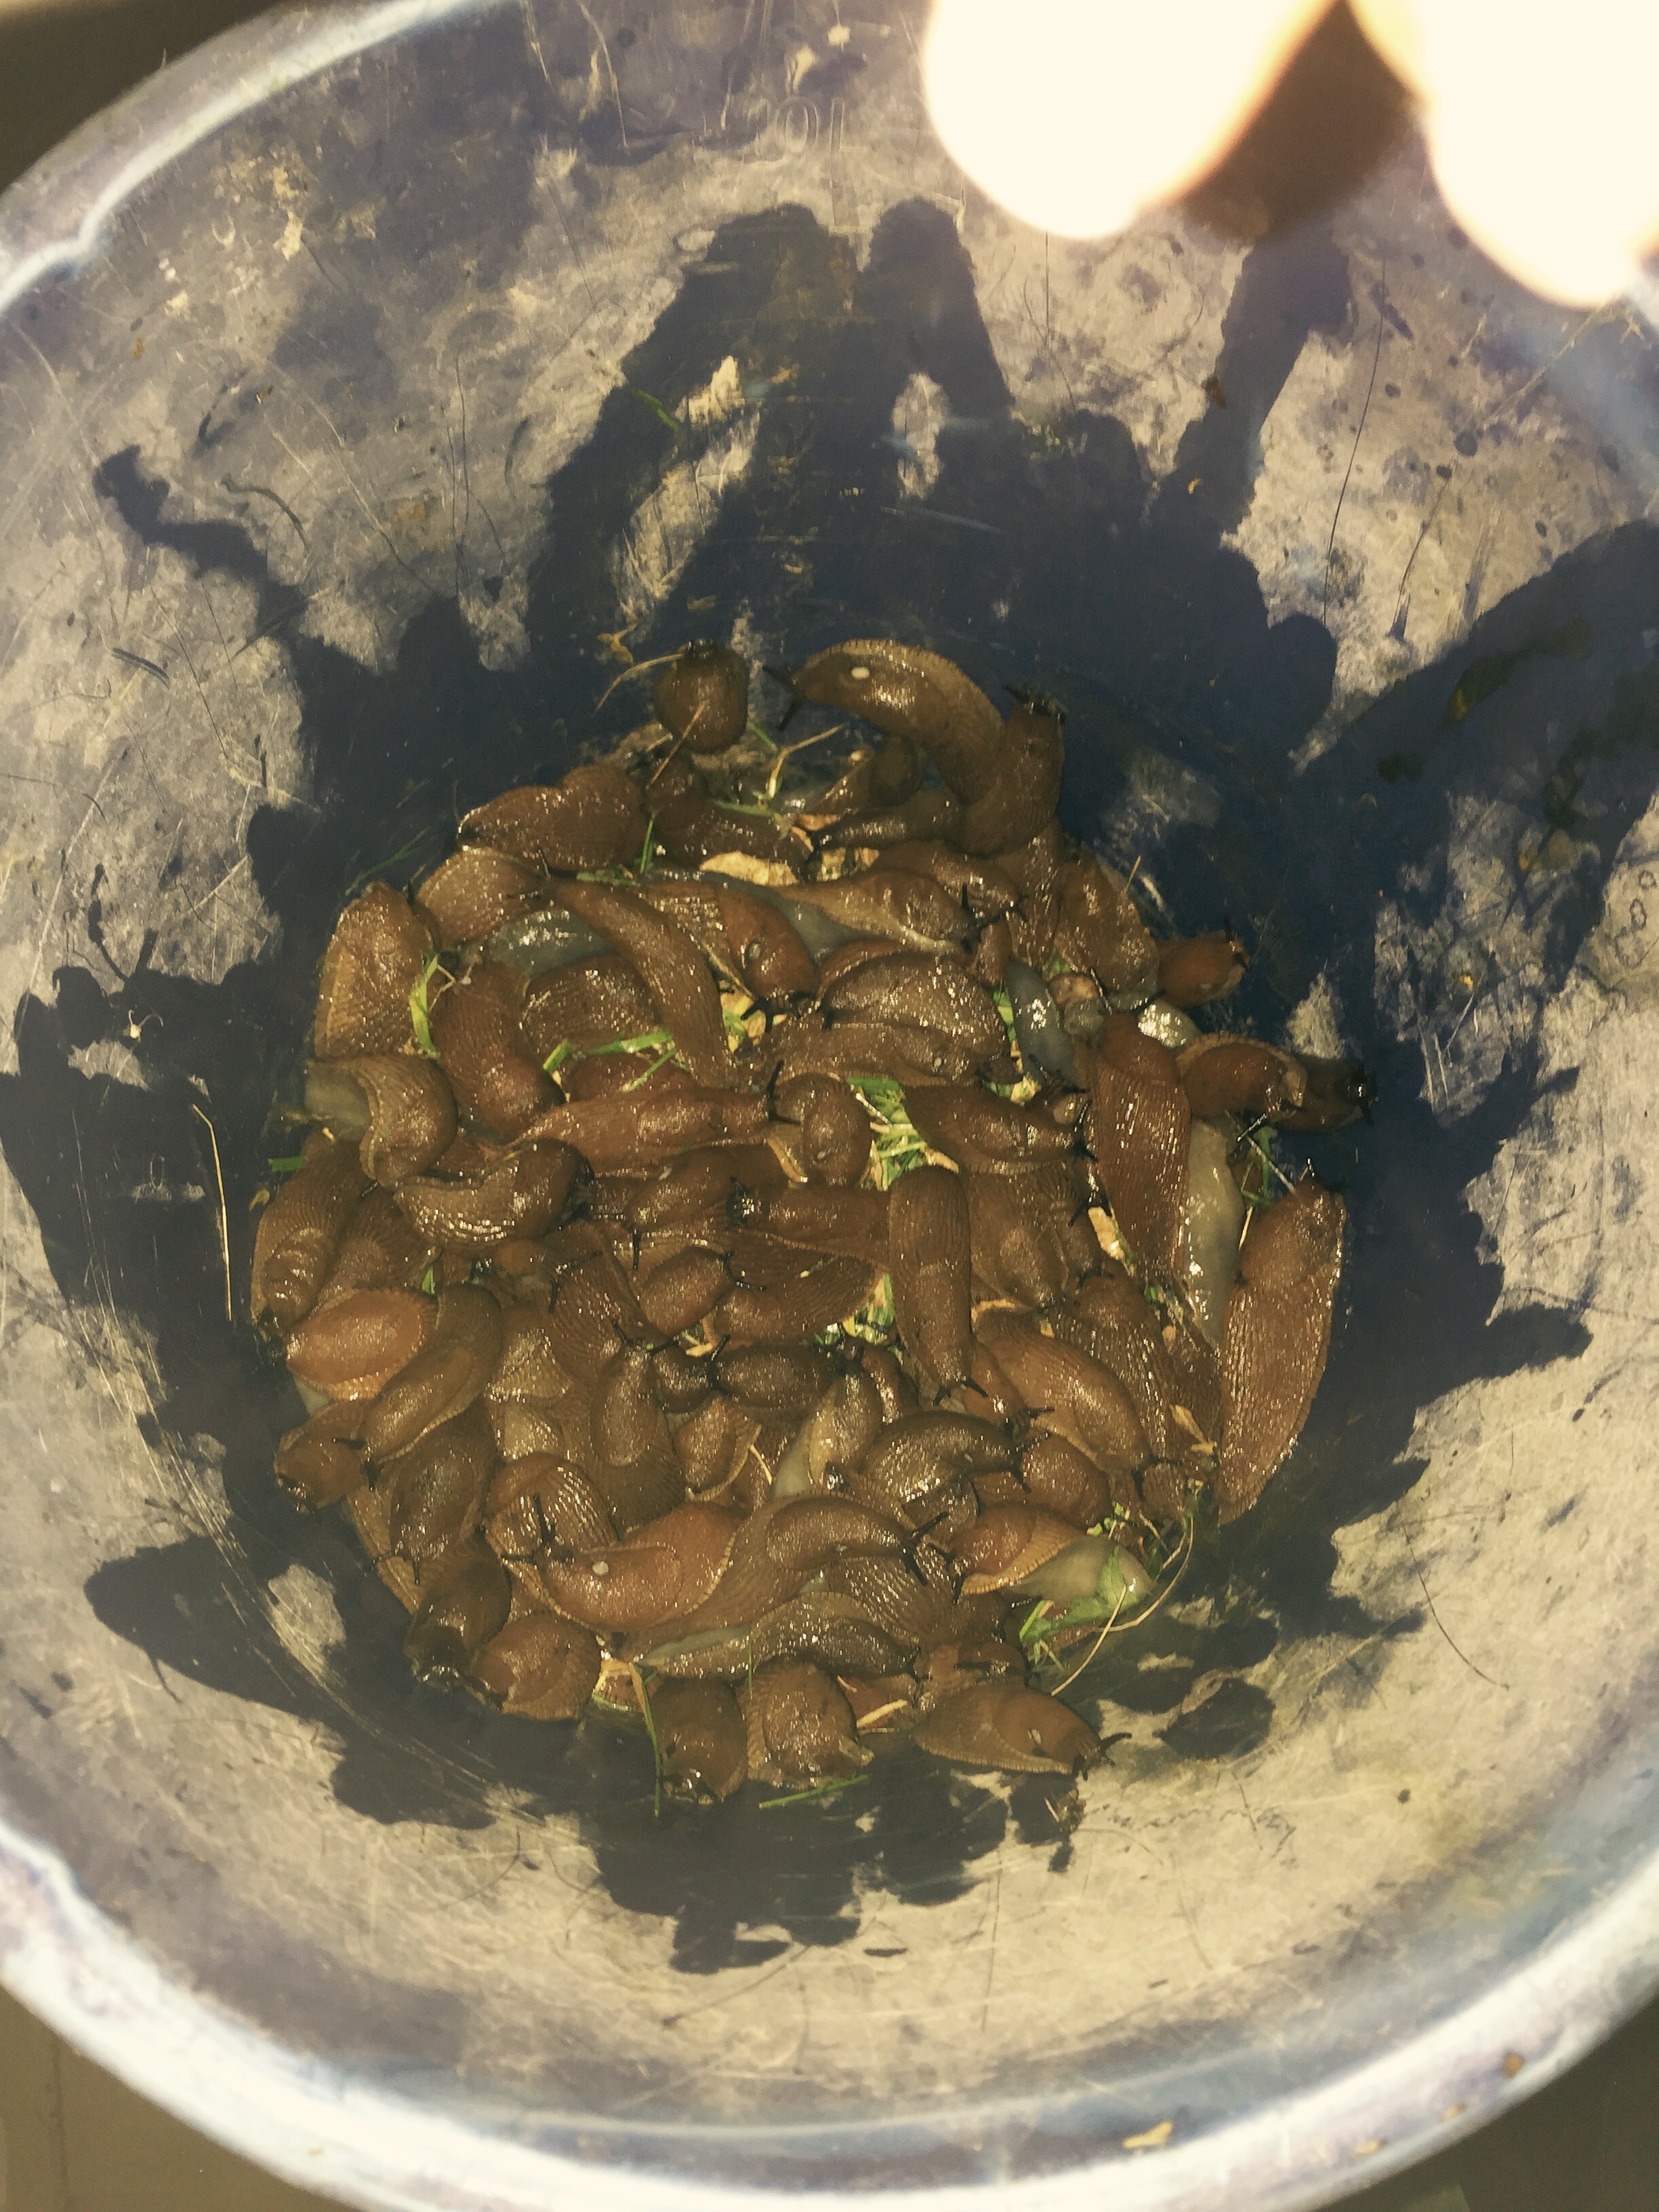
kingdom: Animalia
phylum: Mollusca
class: Gastropoda
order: Stylommatophora
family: Arionidae
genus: Arion
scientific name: Arion vulgaris
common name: Lusitanian slug
